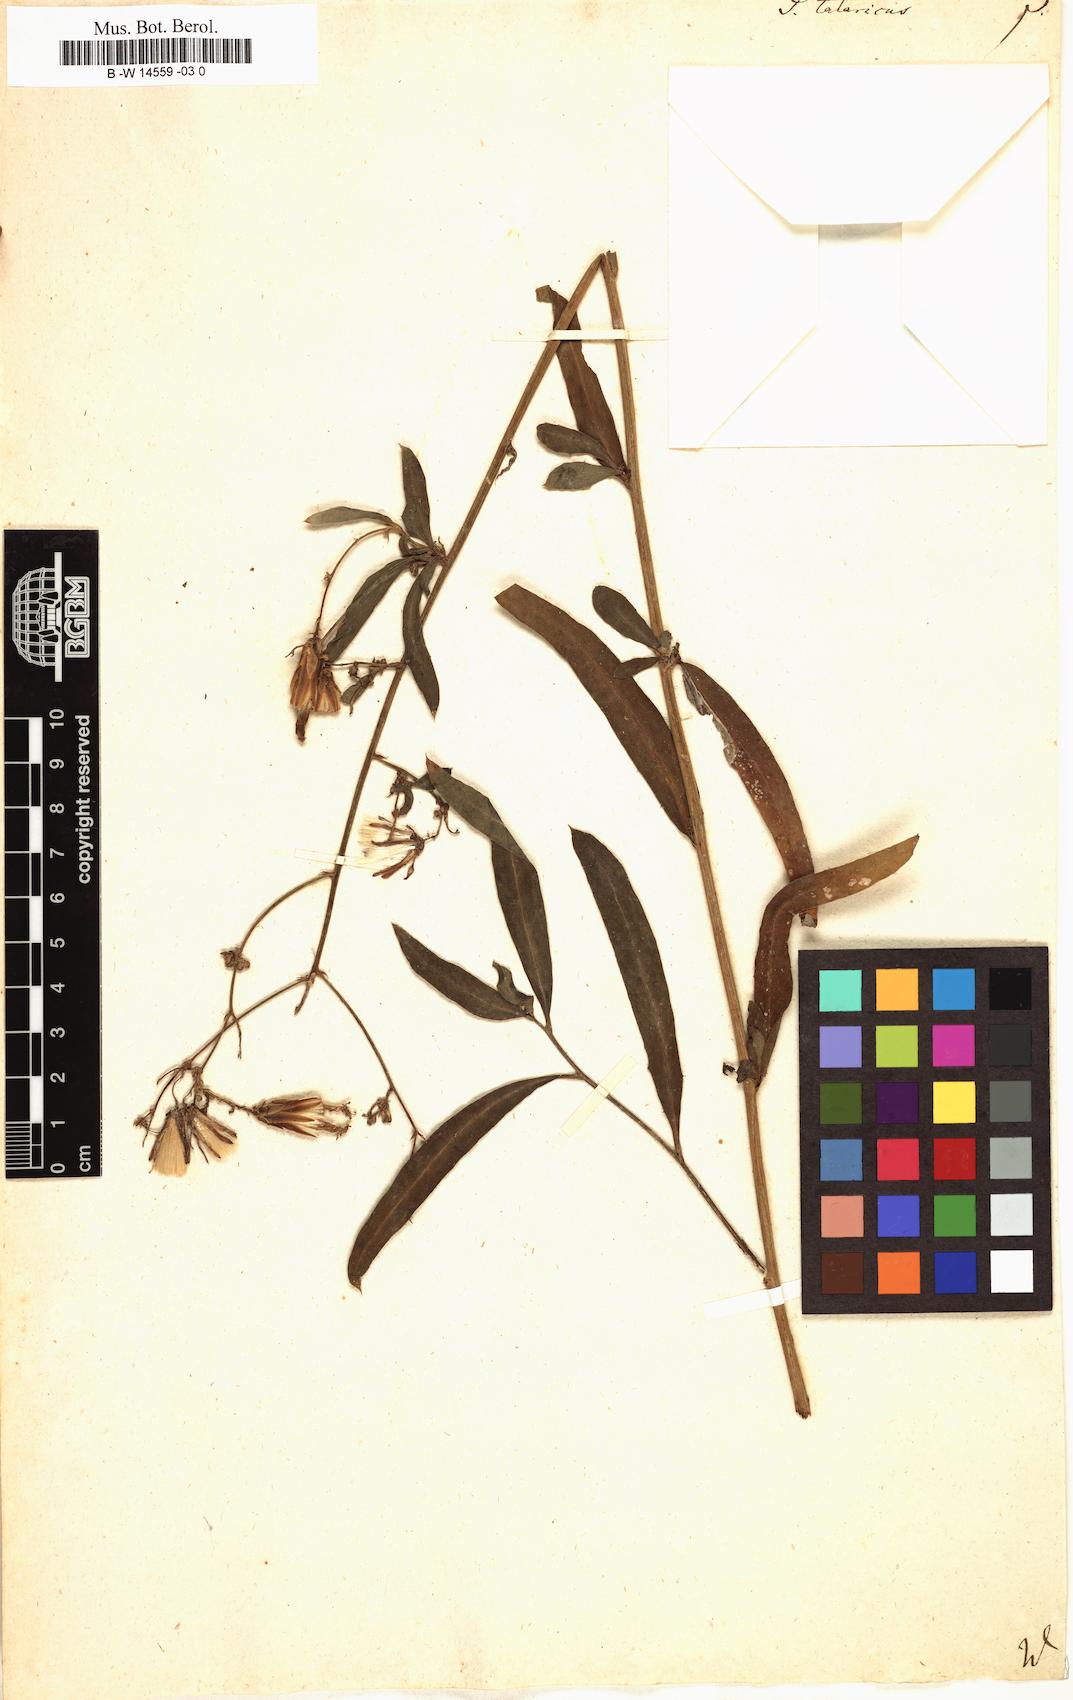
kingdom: Plantae
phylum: Tracheophyta
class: Magnoliopsida
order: Asterales
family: Asteraceae
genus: Lactuca
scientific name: Lactuca tatarica
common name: Blue lettuce
